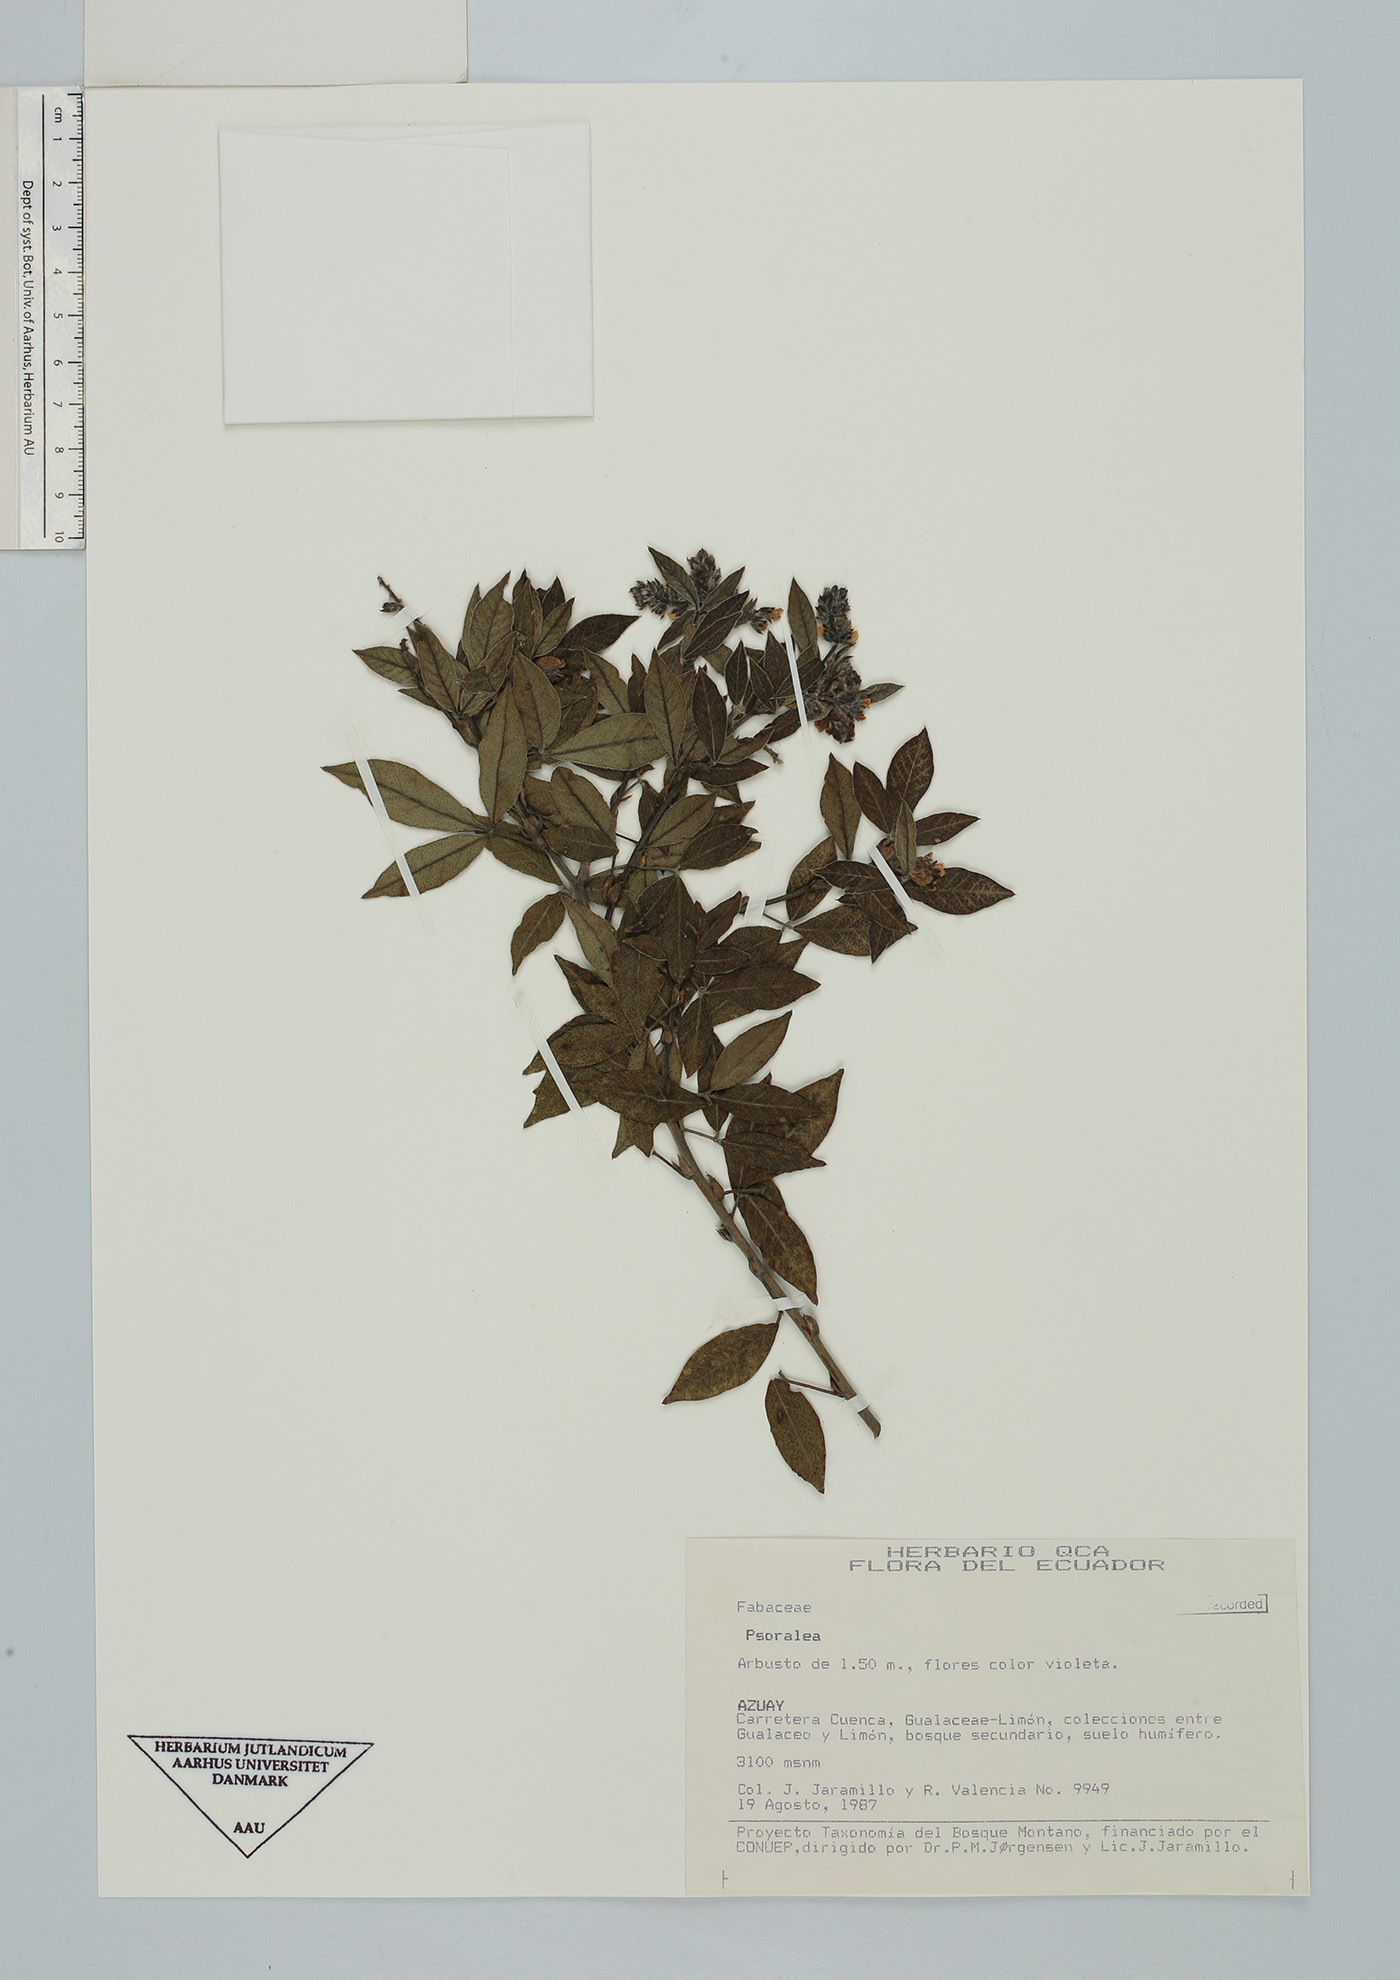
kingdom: Plantae
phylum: Tracheophyta
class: Magnoliopsida
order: Fabales
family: Fabaceae
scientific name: Fabaceae
